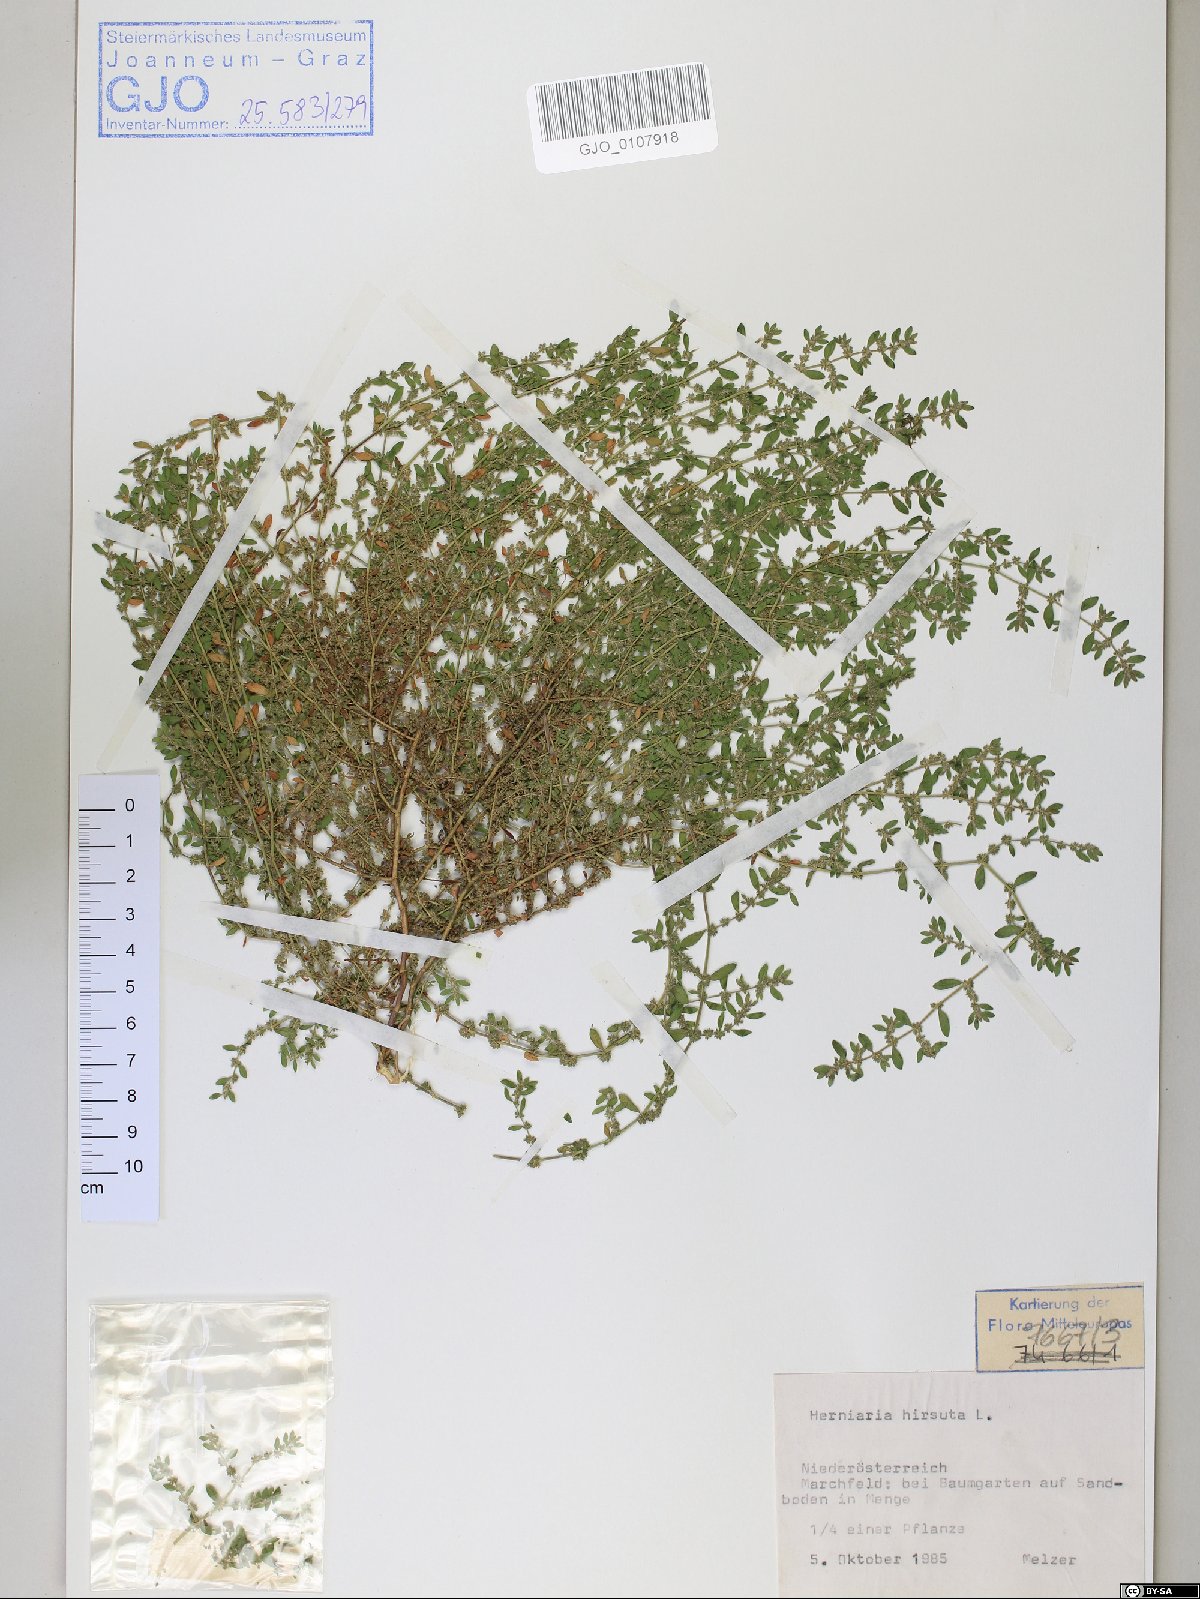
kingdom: Plantae
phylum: Tracheophyta
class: Magnoliopsida
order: Caryophyllales
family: Caryophyllaceae
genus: Herniaria
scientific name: Herniaria hirsuta
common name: Hairy rupturewort
